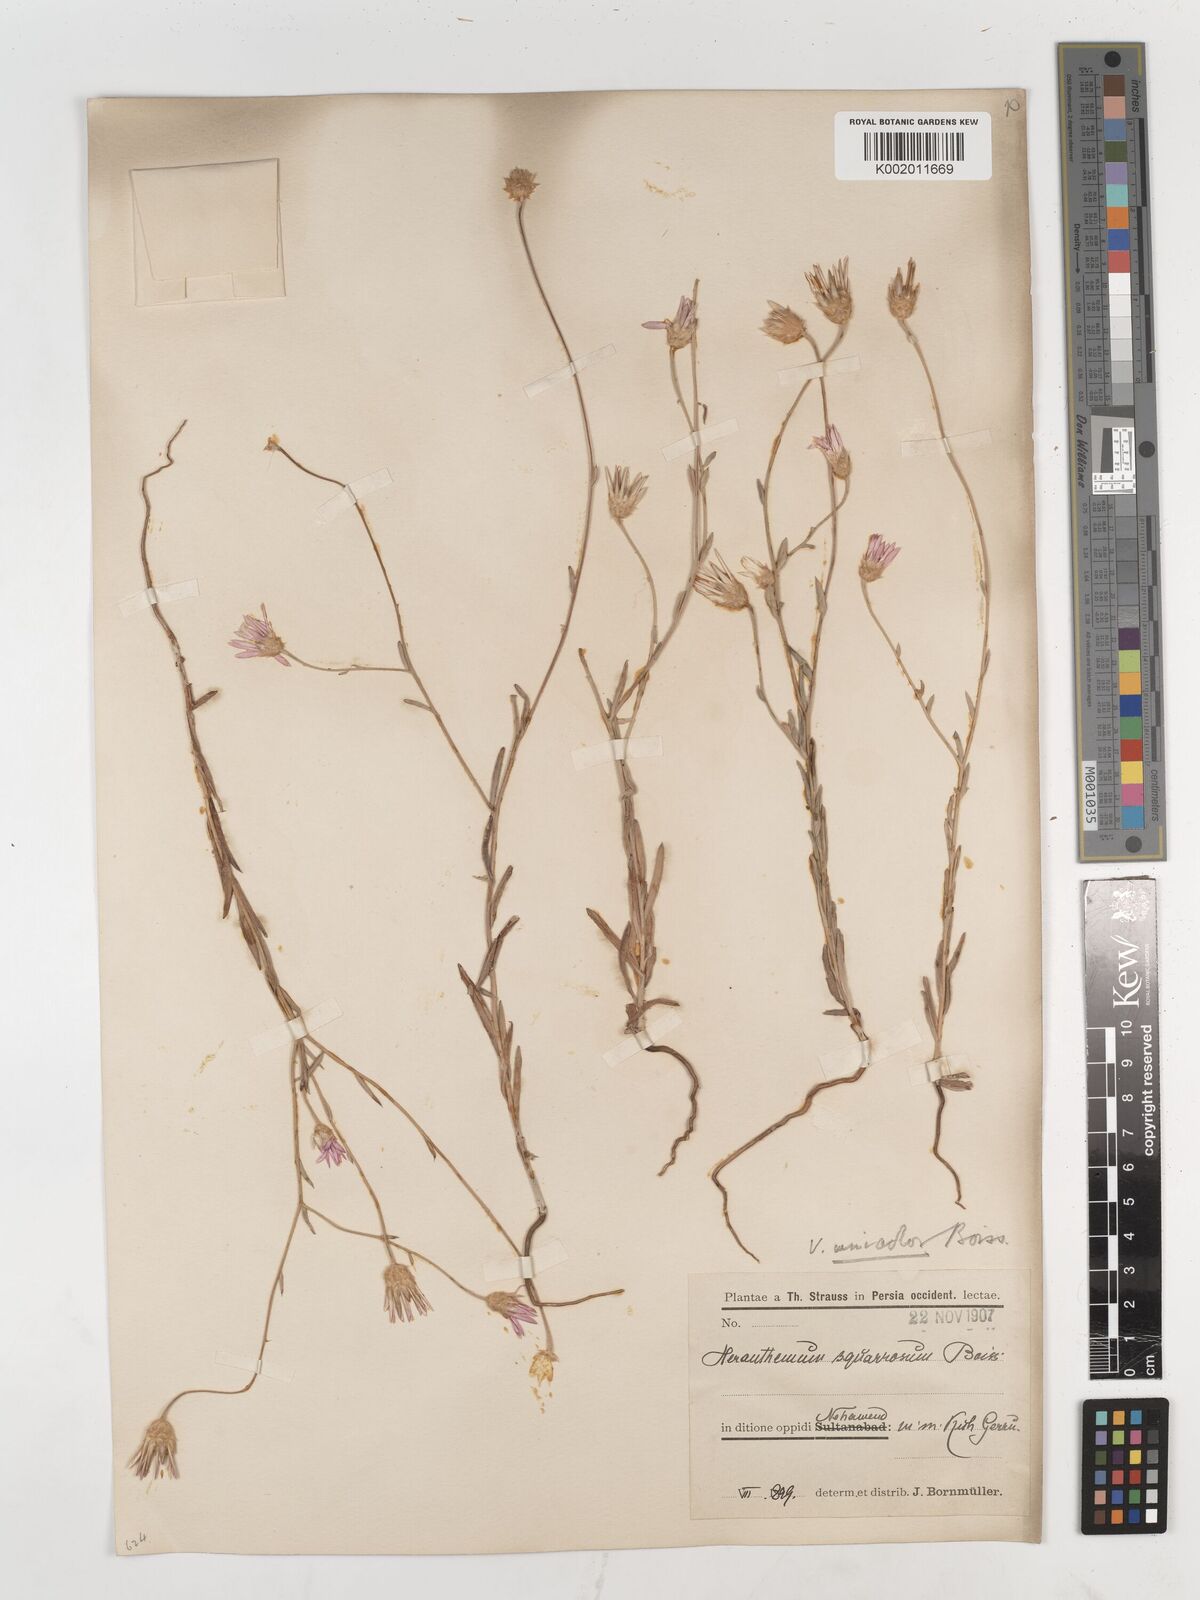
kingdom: Plantae
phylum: Tracheophyta
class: Magnoliopsida
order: Asterales
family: Asteraceae
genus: Xeranthemum
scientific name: Xeranthemum squarrosum
